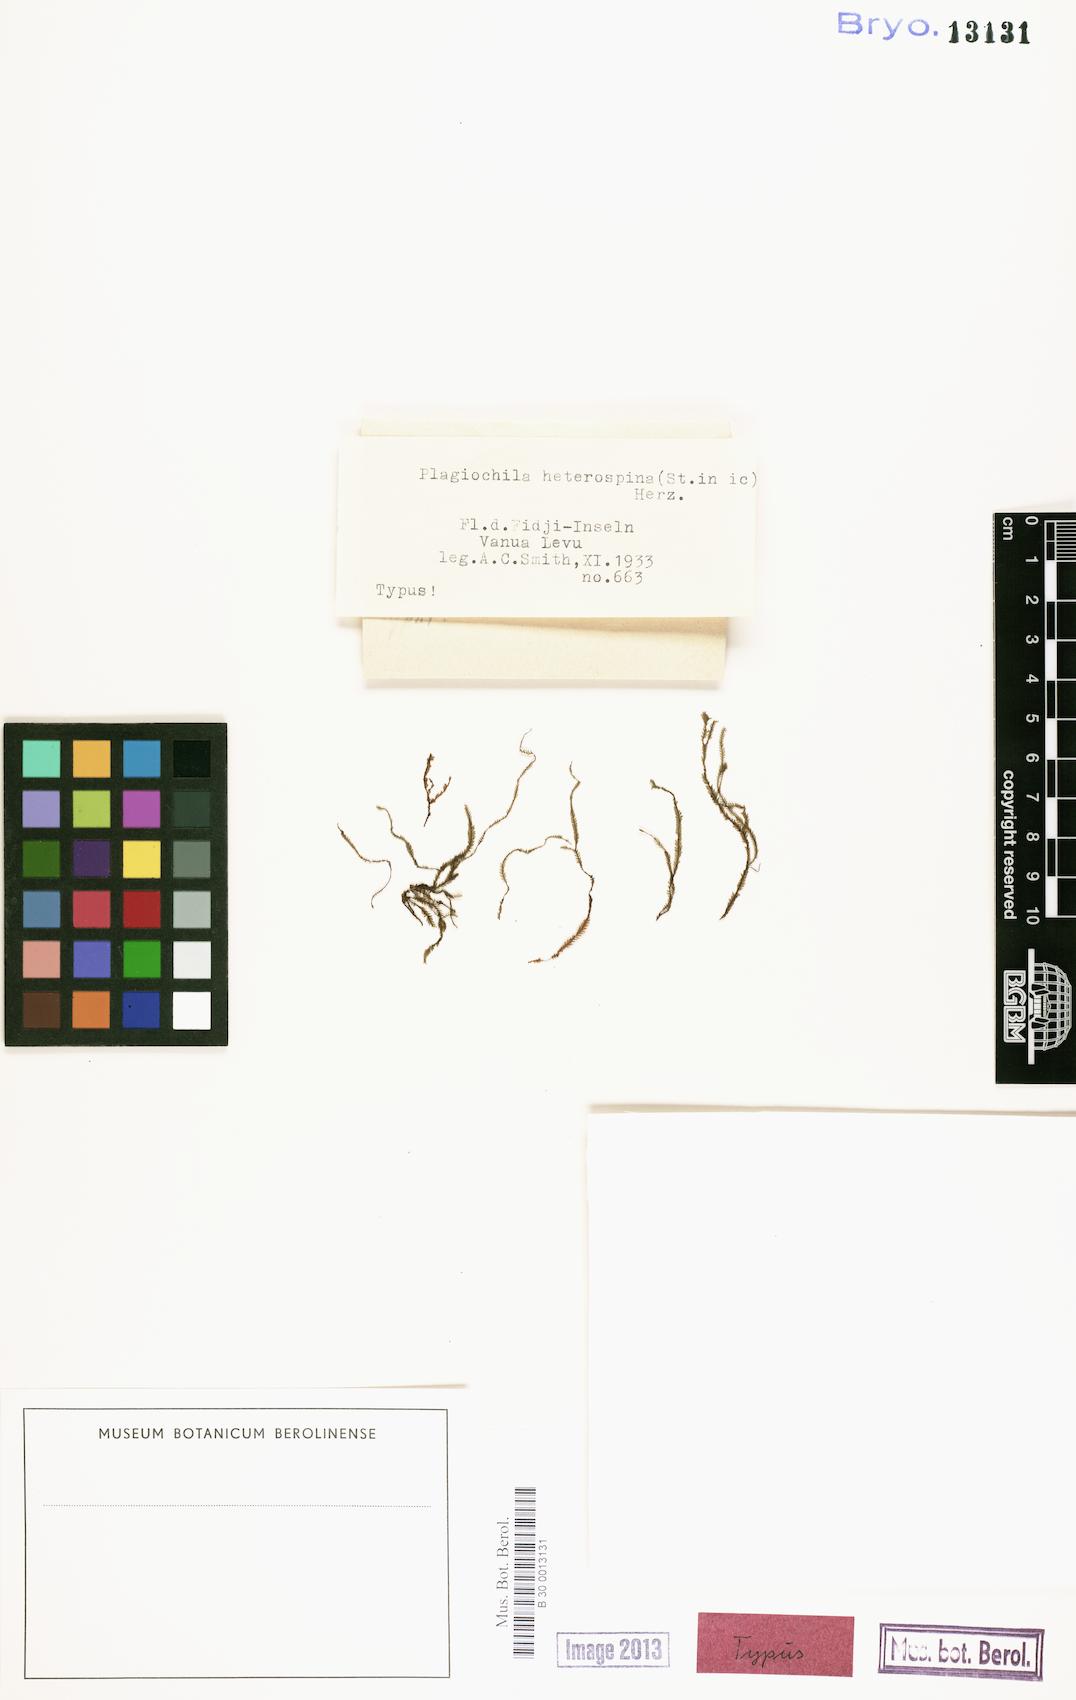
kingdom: Plantae
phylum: Marchantiophyta
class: Jungermanniopsida
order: Jungermanniales
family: Plagiochilaceae
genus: Plagiochila
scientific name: Plagiochila alta
